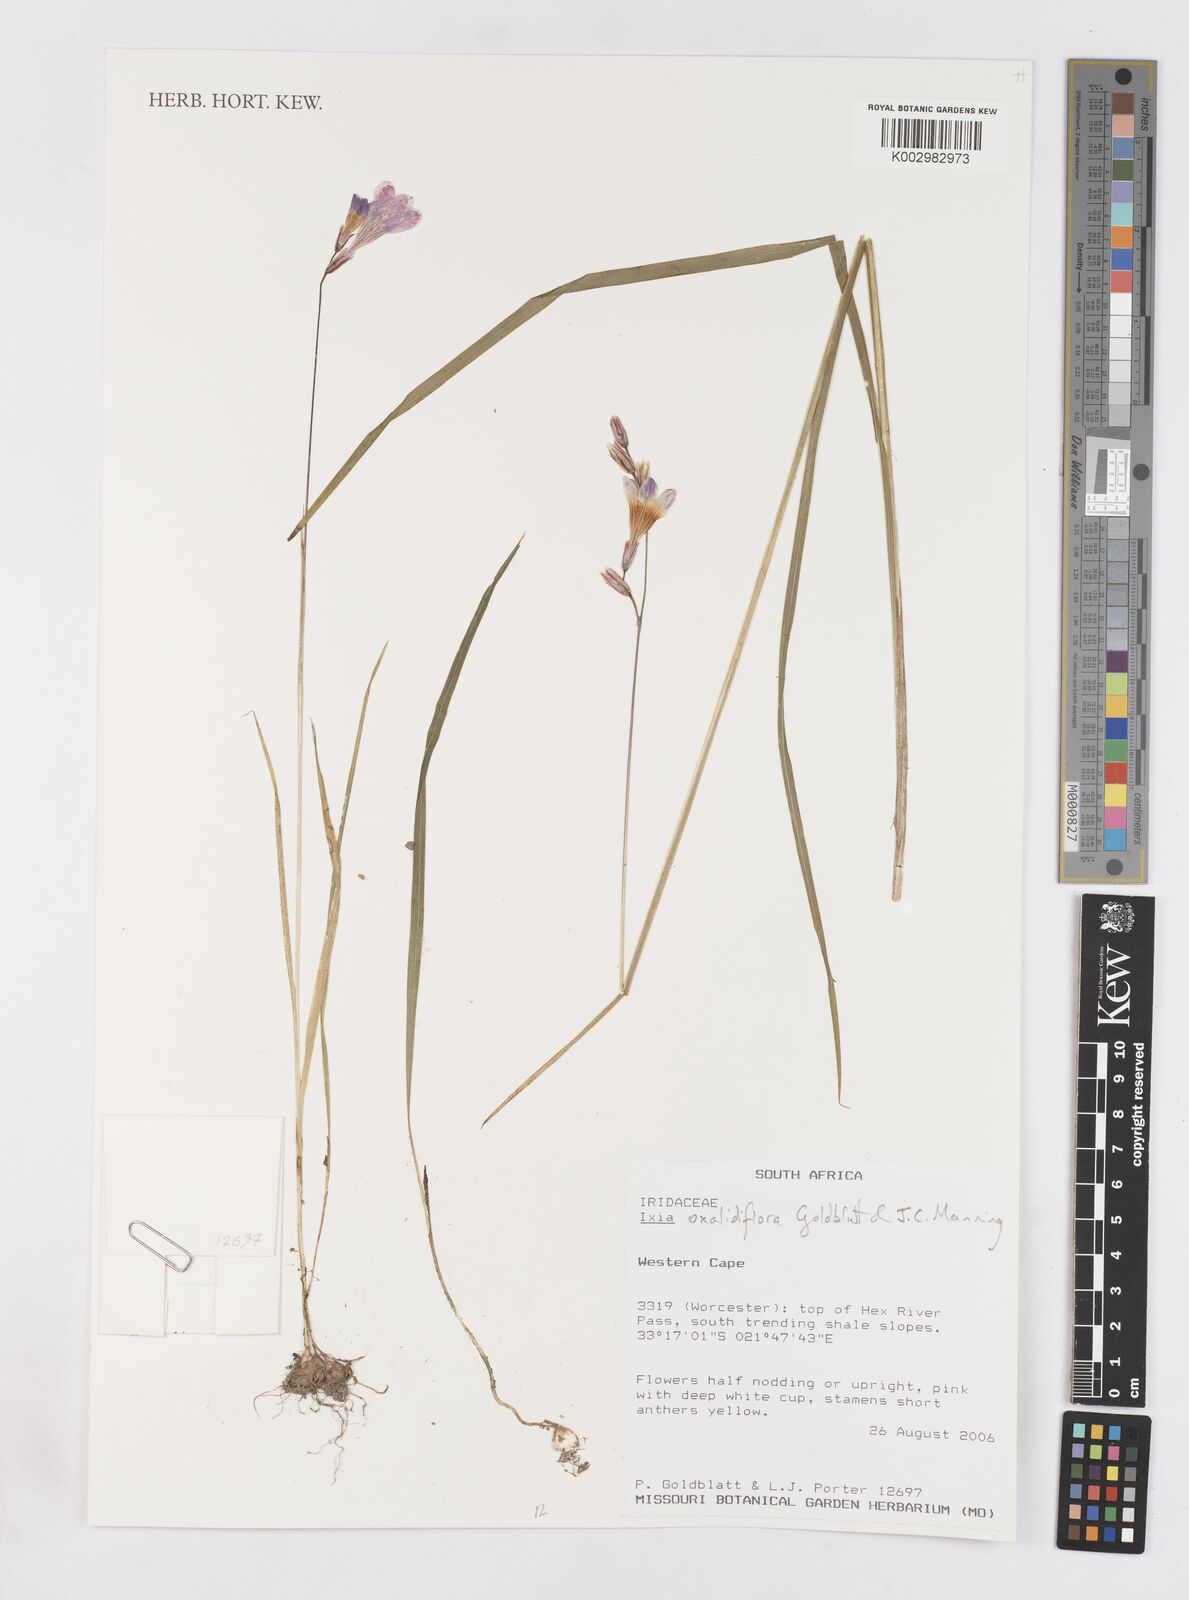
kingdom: Plantae
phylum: Tracheophyta
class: Liliopsida
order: Asparagales
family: Iridaceae
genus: Ixia
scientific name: Ixia oxalidiflora
